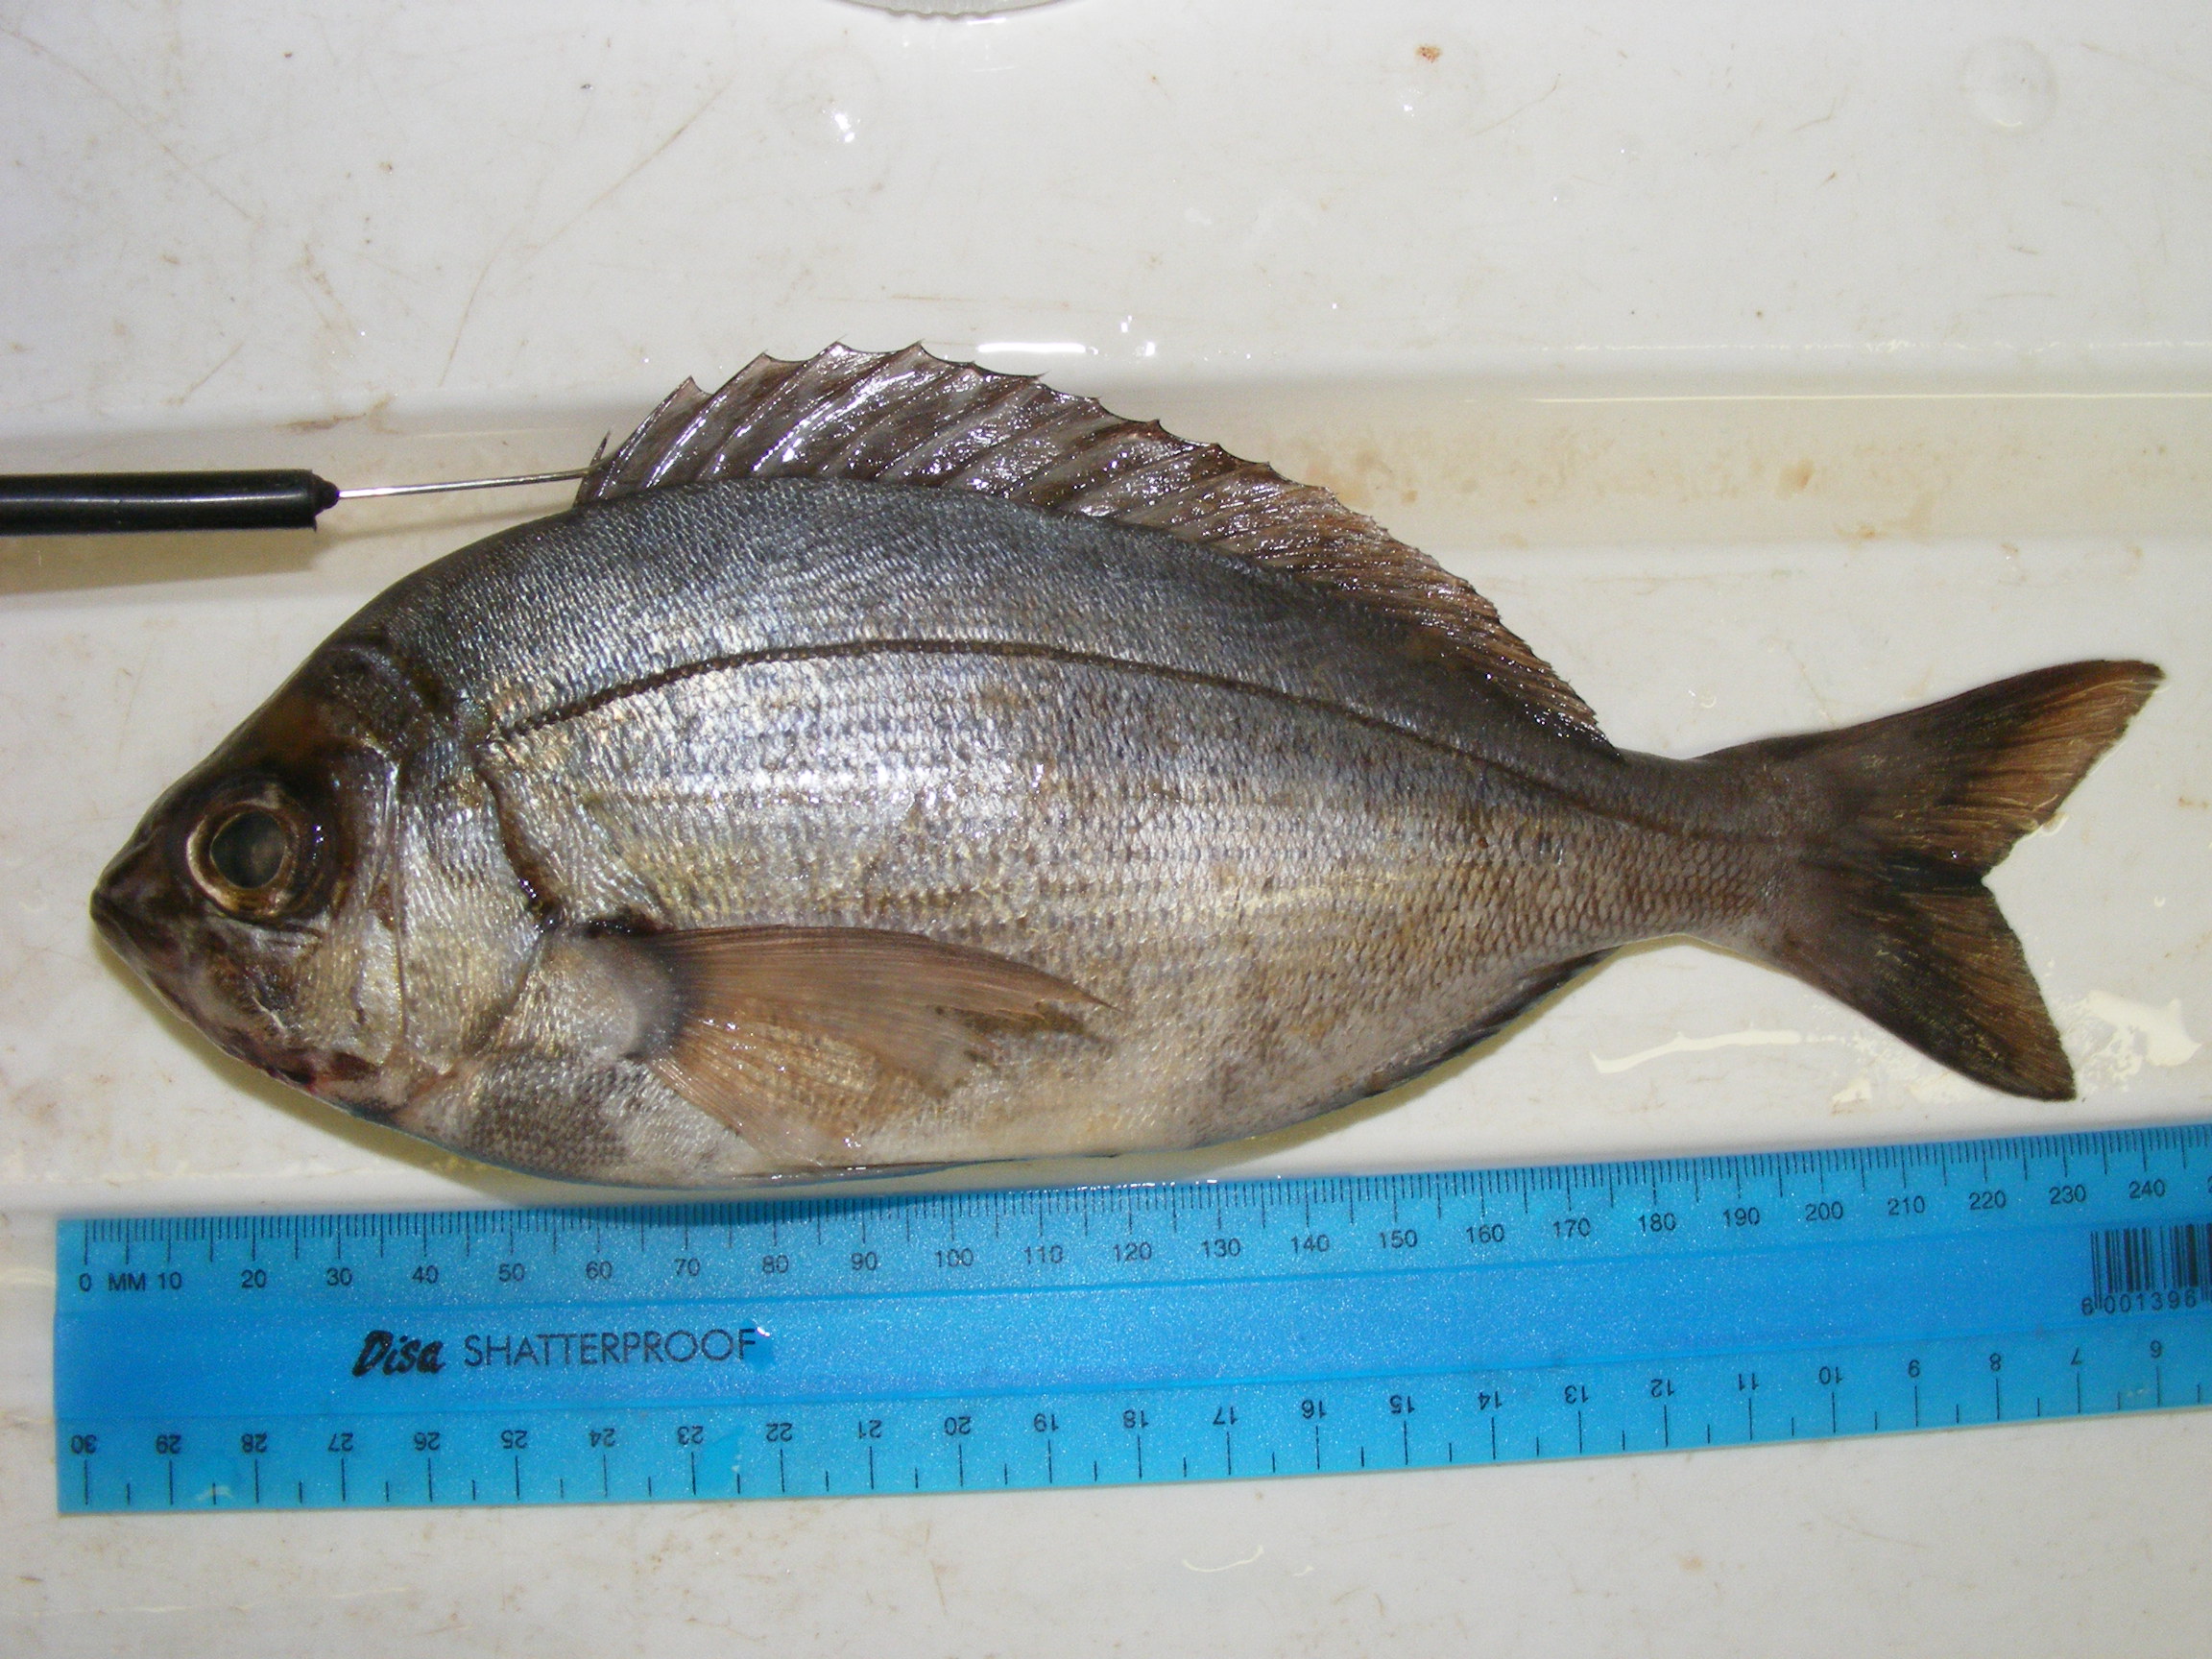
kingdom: Animalia
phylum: Chordata
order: Perciformes
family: Sparidae
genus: Spondyliosoma
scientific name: Spondyliosoma emarginatum
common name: Steentje seabream
